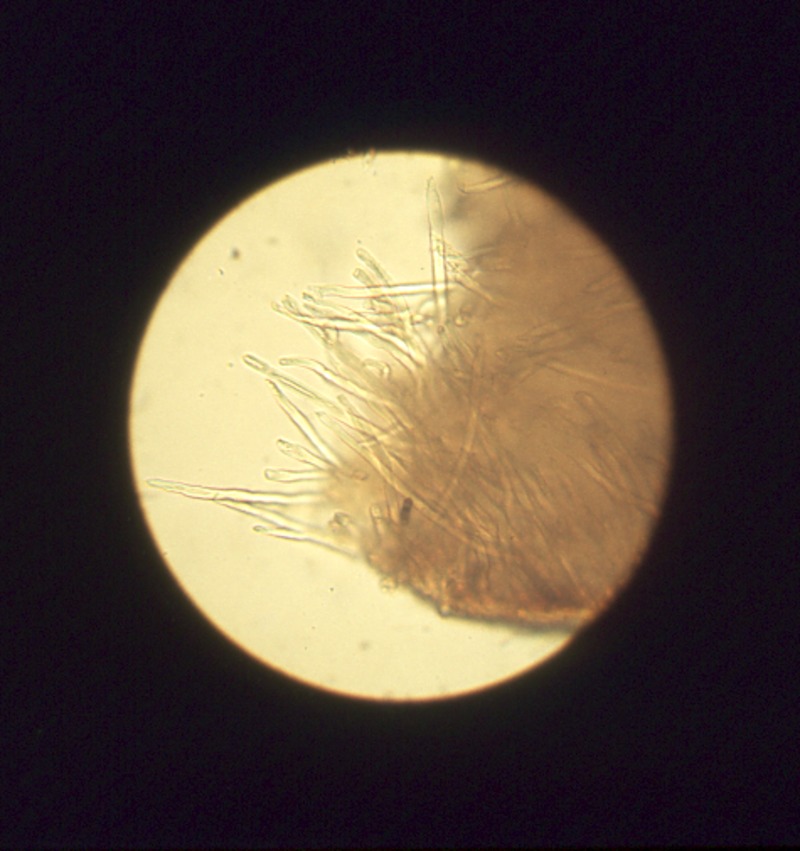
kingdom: Fungi
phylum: Basidiomycota
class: Agaricomycetes
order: Auriculariales
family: Auriculariaceae
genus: Auricularia
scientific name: Auricularia auricula-judae
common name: Jelly ear
